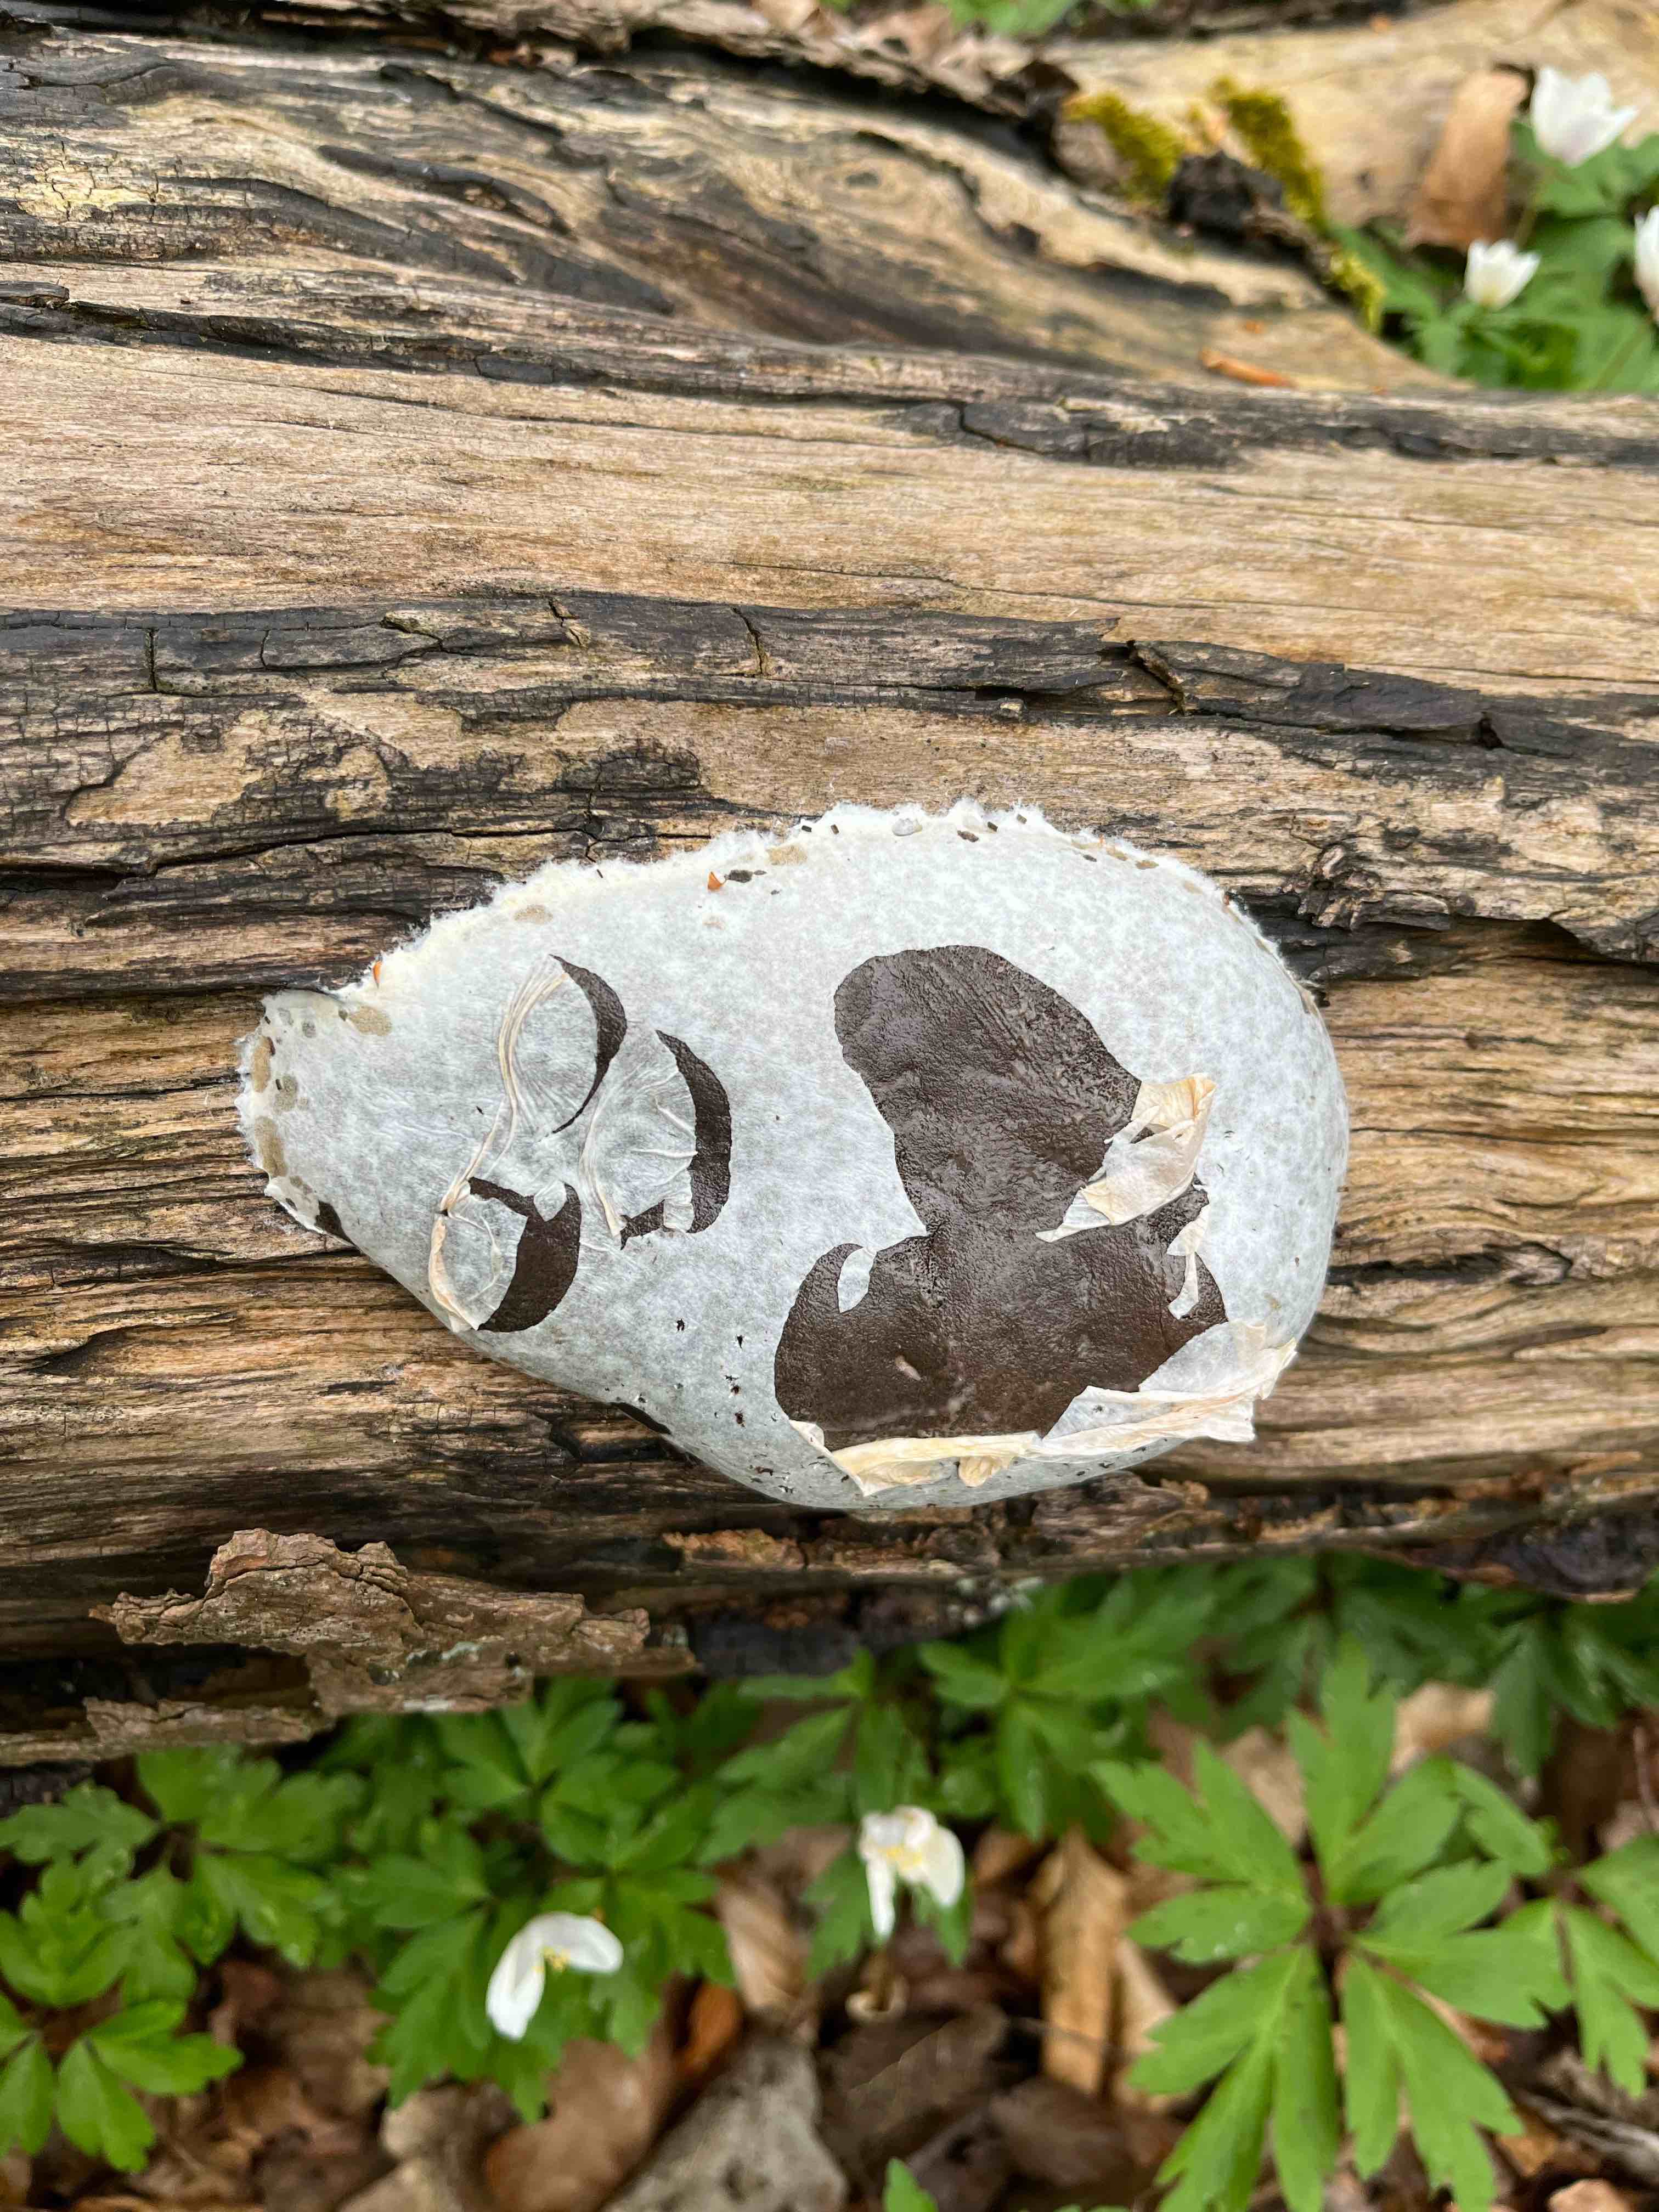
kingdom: Protozoa
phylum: Mycetozoa
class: Myxomycetes
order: Cribrariales
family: Tubiferaceae
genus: Reticularia
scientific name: Reticularia lycoperdon
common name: skinnende støvpude
